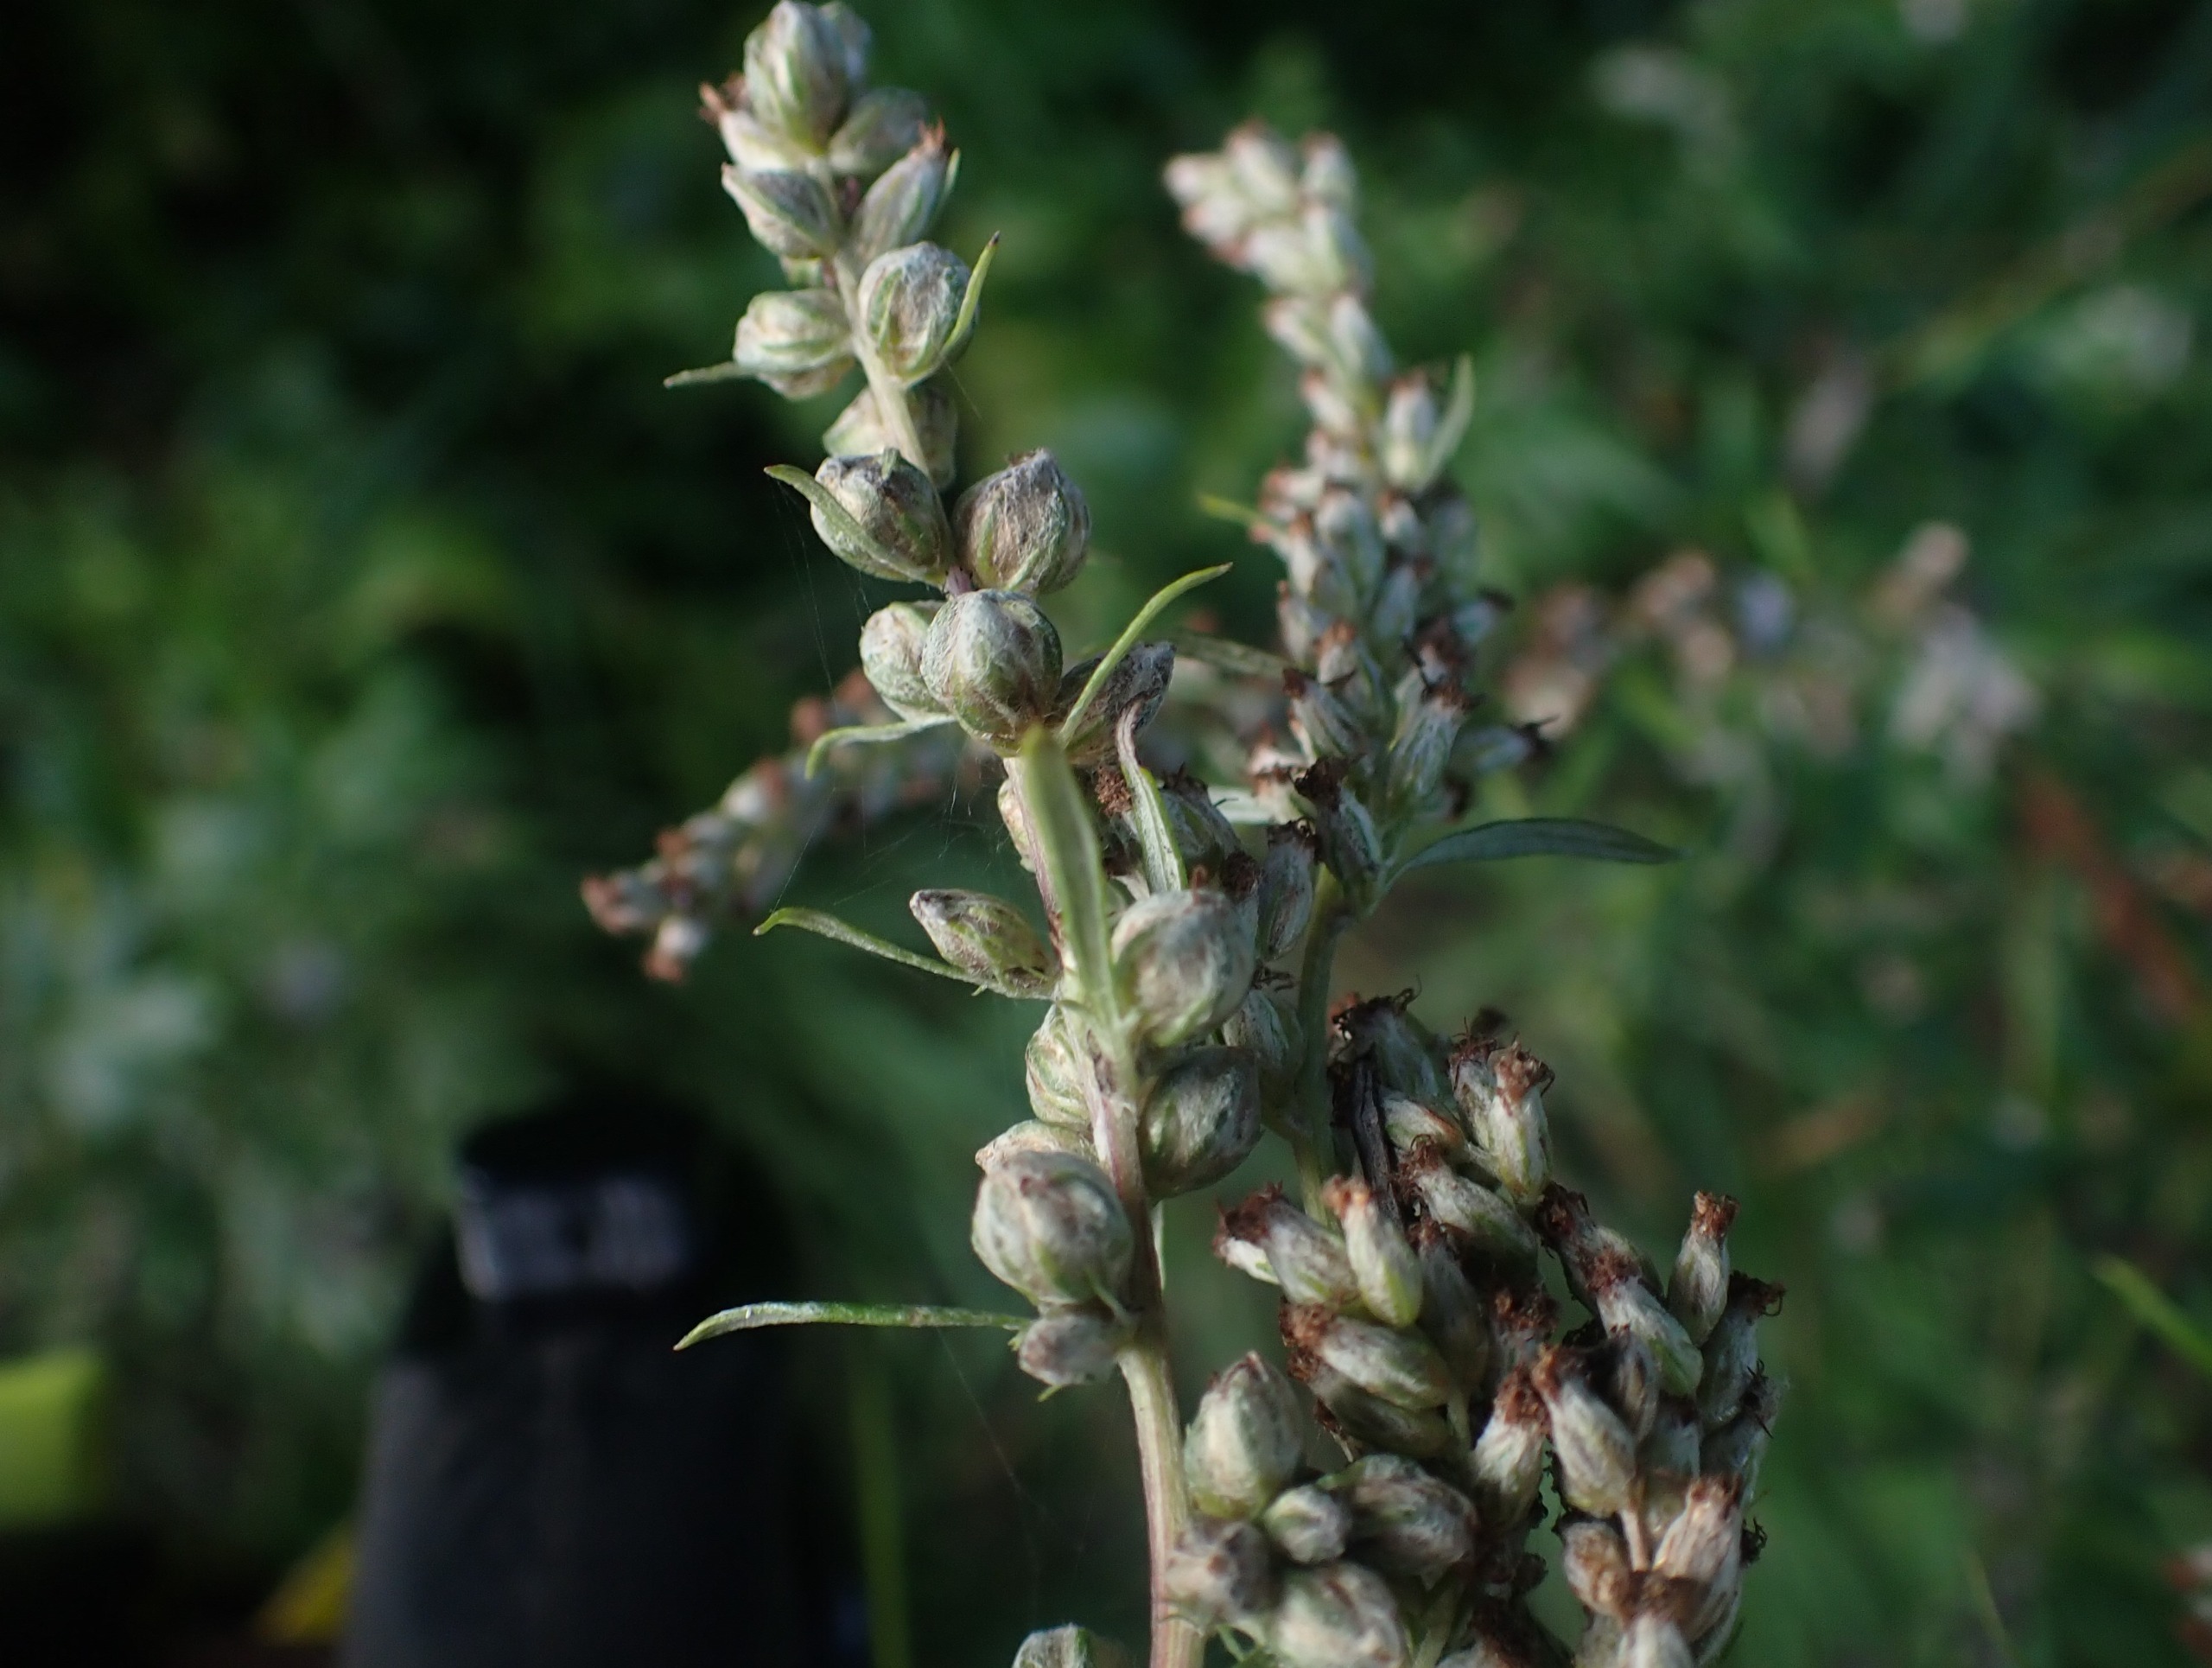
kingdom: Animalia
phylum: Arthropoda
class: Insecta
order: Diptera
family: Cecidomyiidae
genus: Ametrodiplosis
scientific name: Ametrodiplosis rudimentalis
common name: Bynkekurvgalmyg
